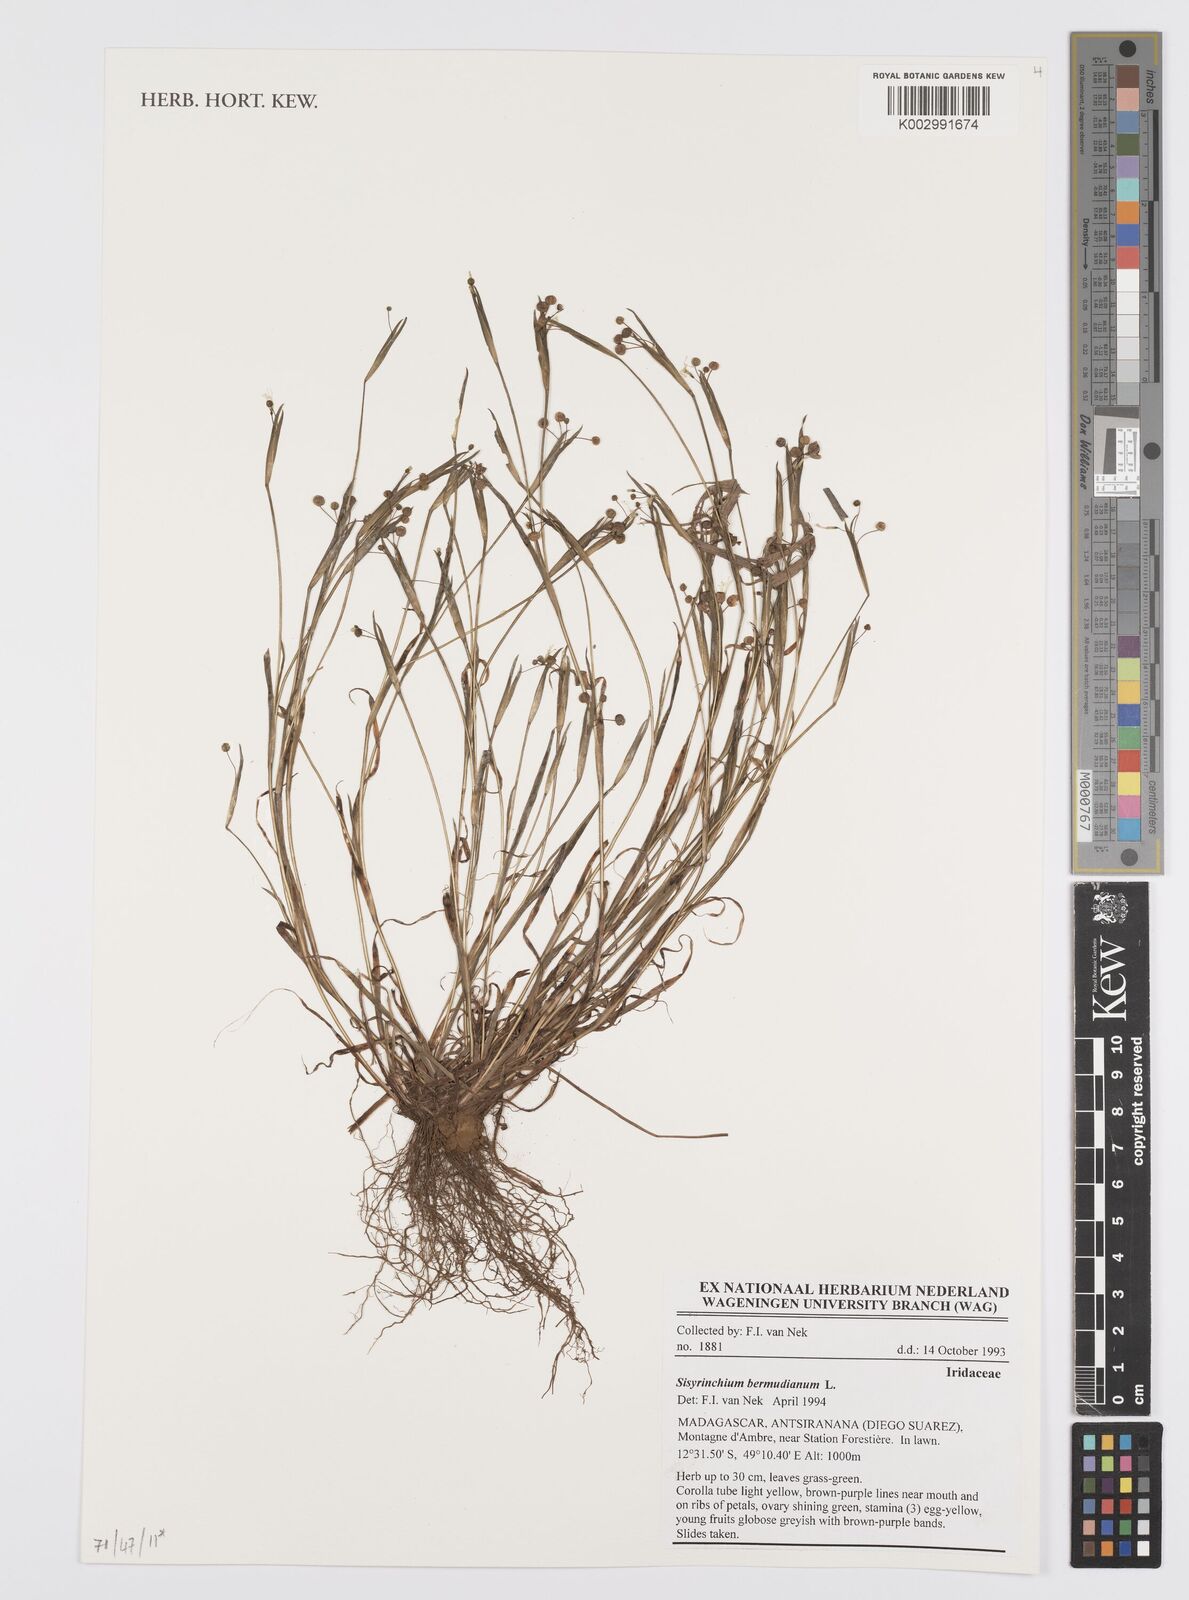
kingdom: Plantae
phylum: Tracheophyta
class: Liliopsida
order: Asparagales
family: Iridaceae
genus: Sisyrinchium
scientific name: Sisyrinchium bermudiana
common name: Blue-eyed-grass
